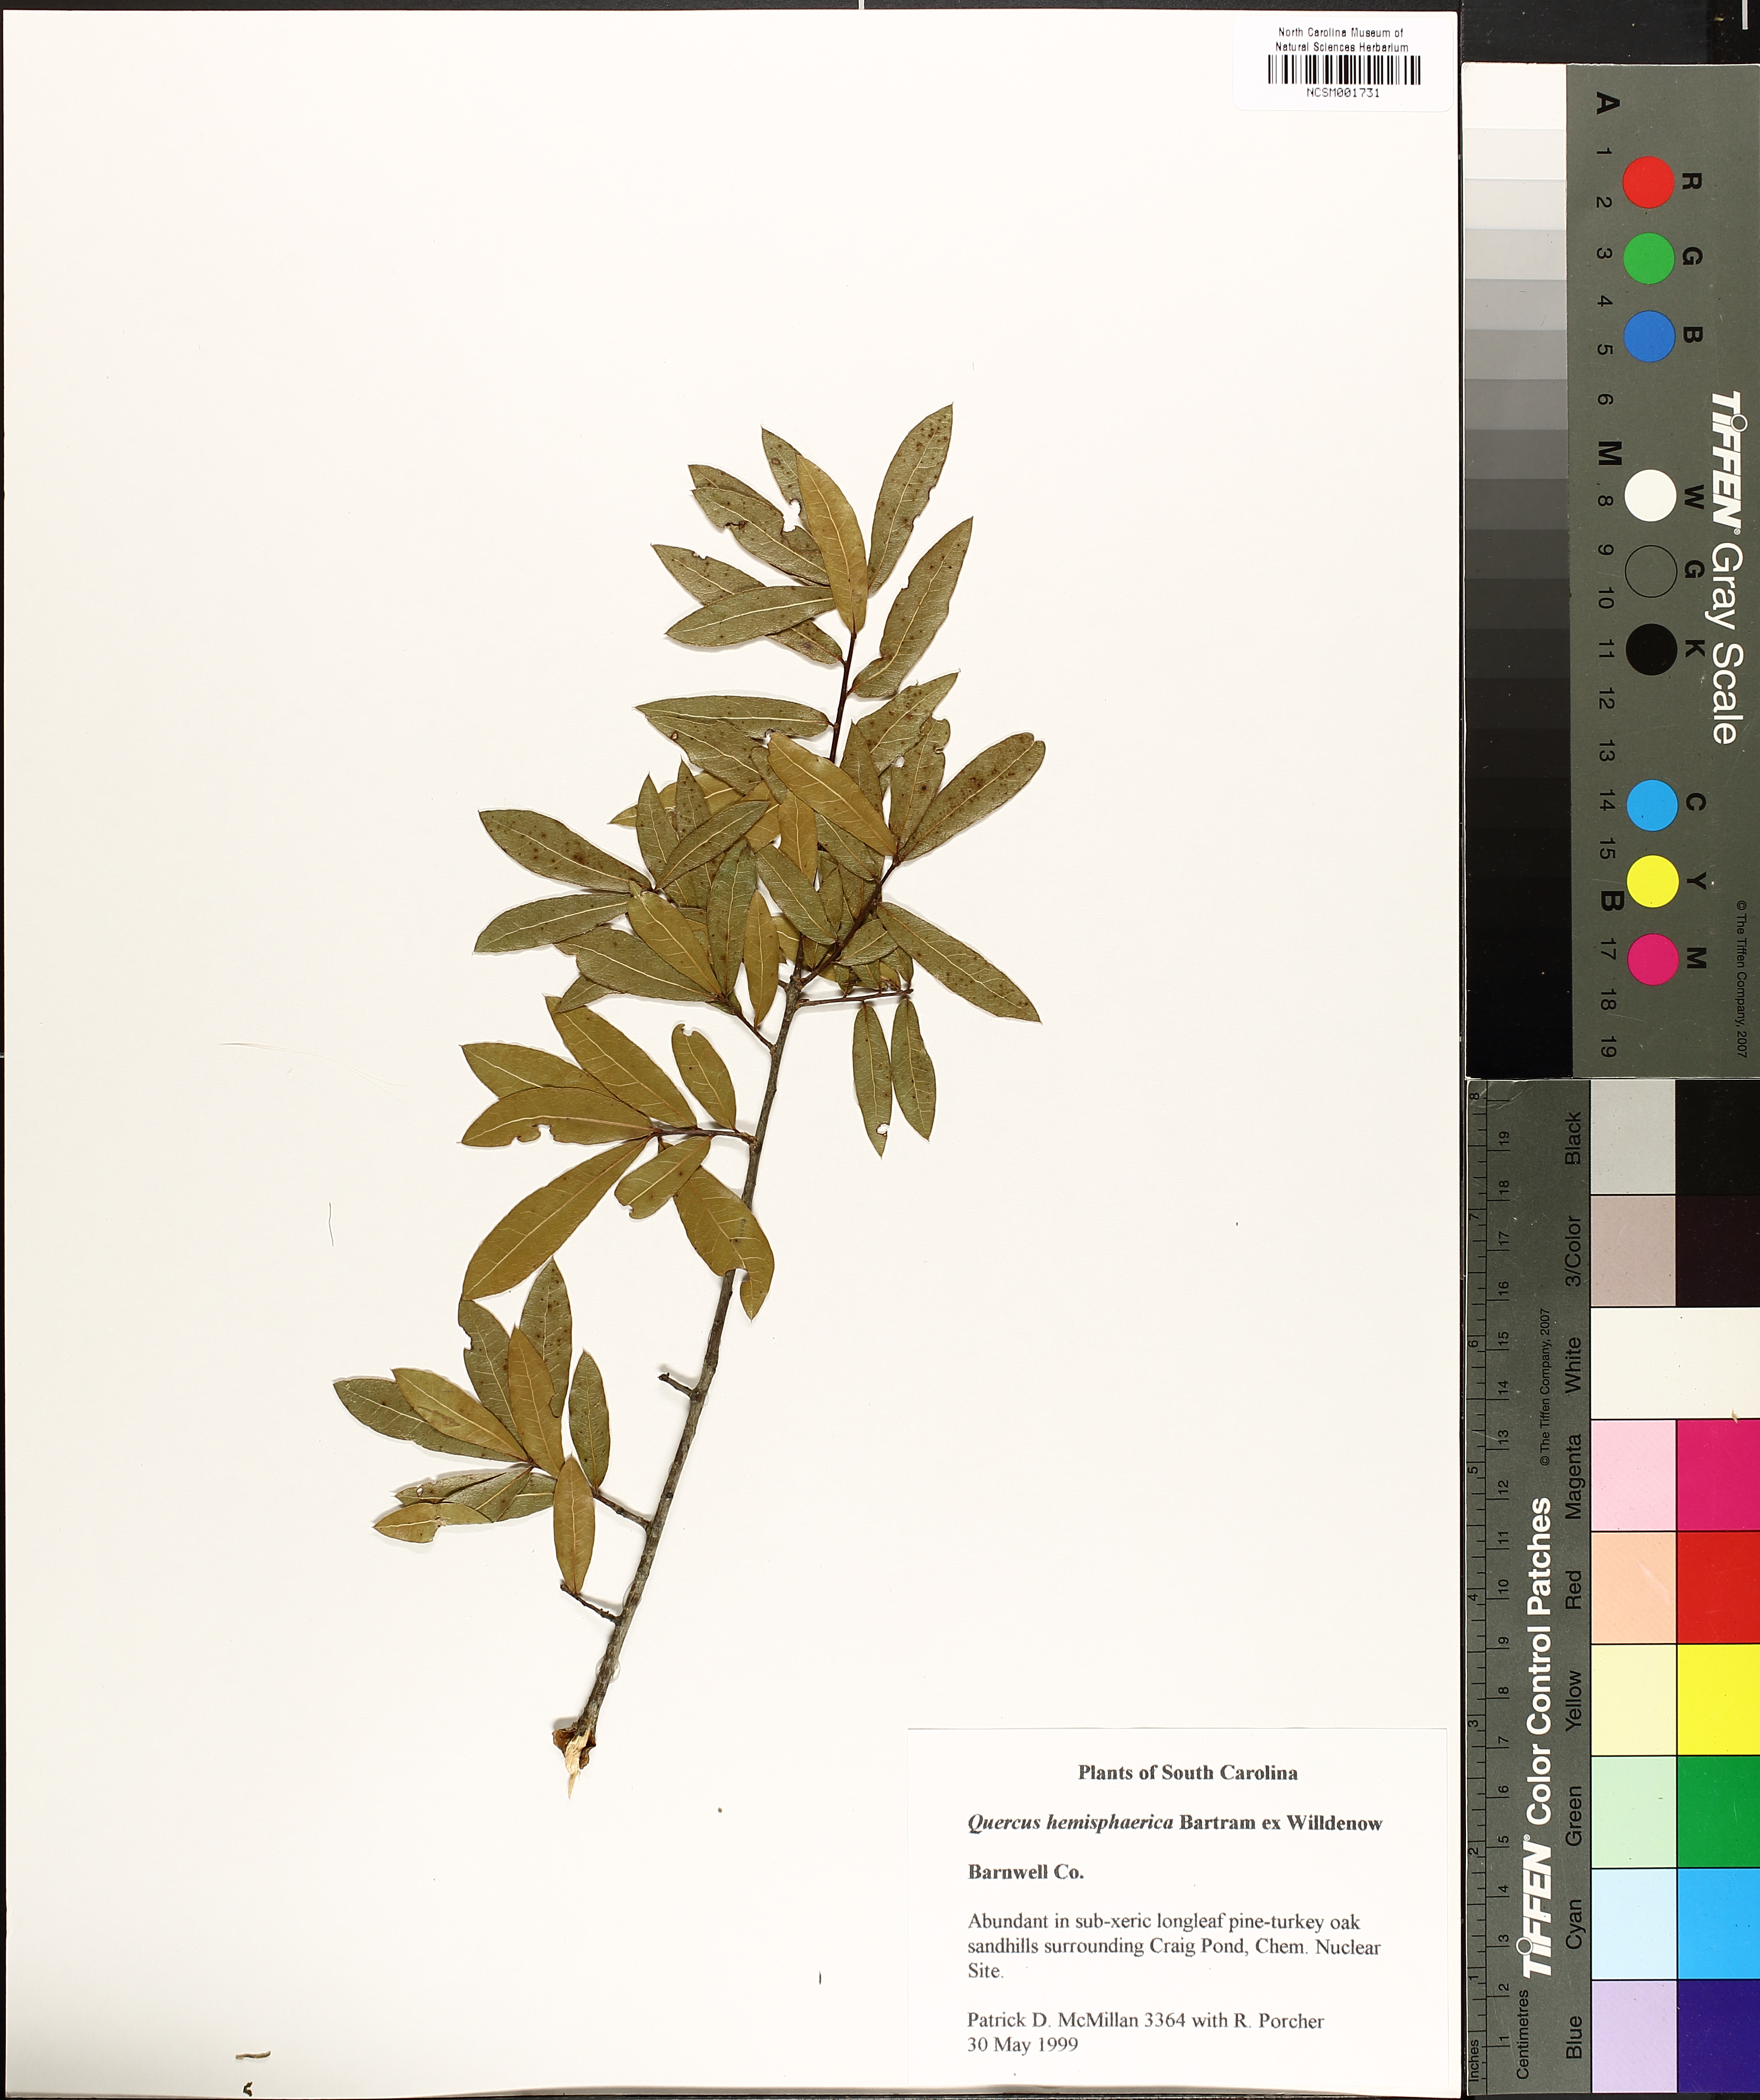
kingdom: Plantae
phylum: Tracheophyta
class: Magnoliopsida
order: Fagales
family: Fagaceae
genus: Quercus
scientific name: Quercus hemisphaerica
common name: Darlington oak
